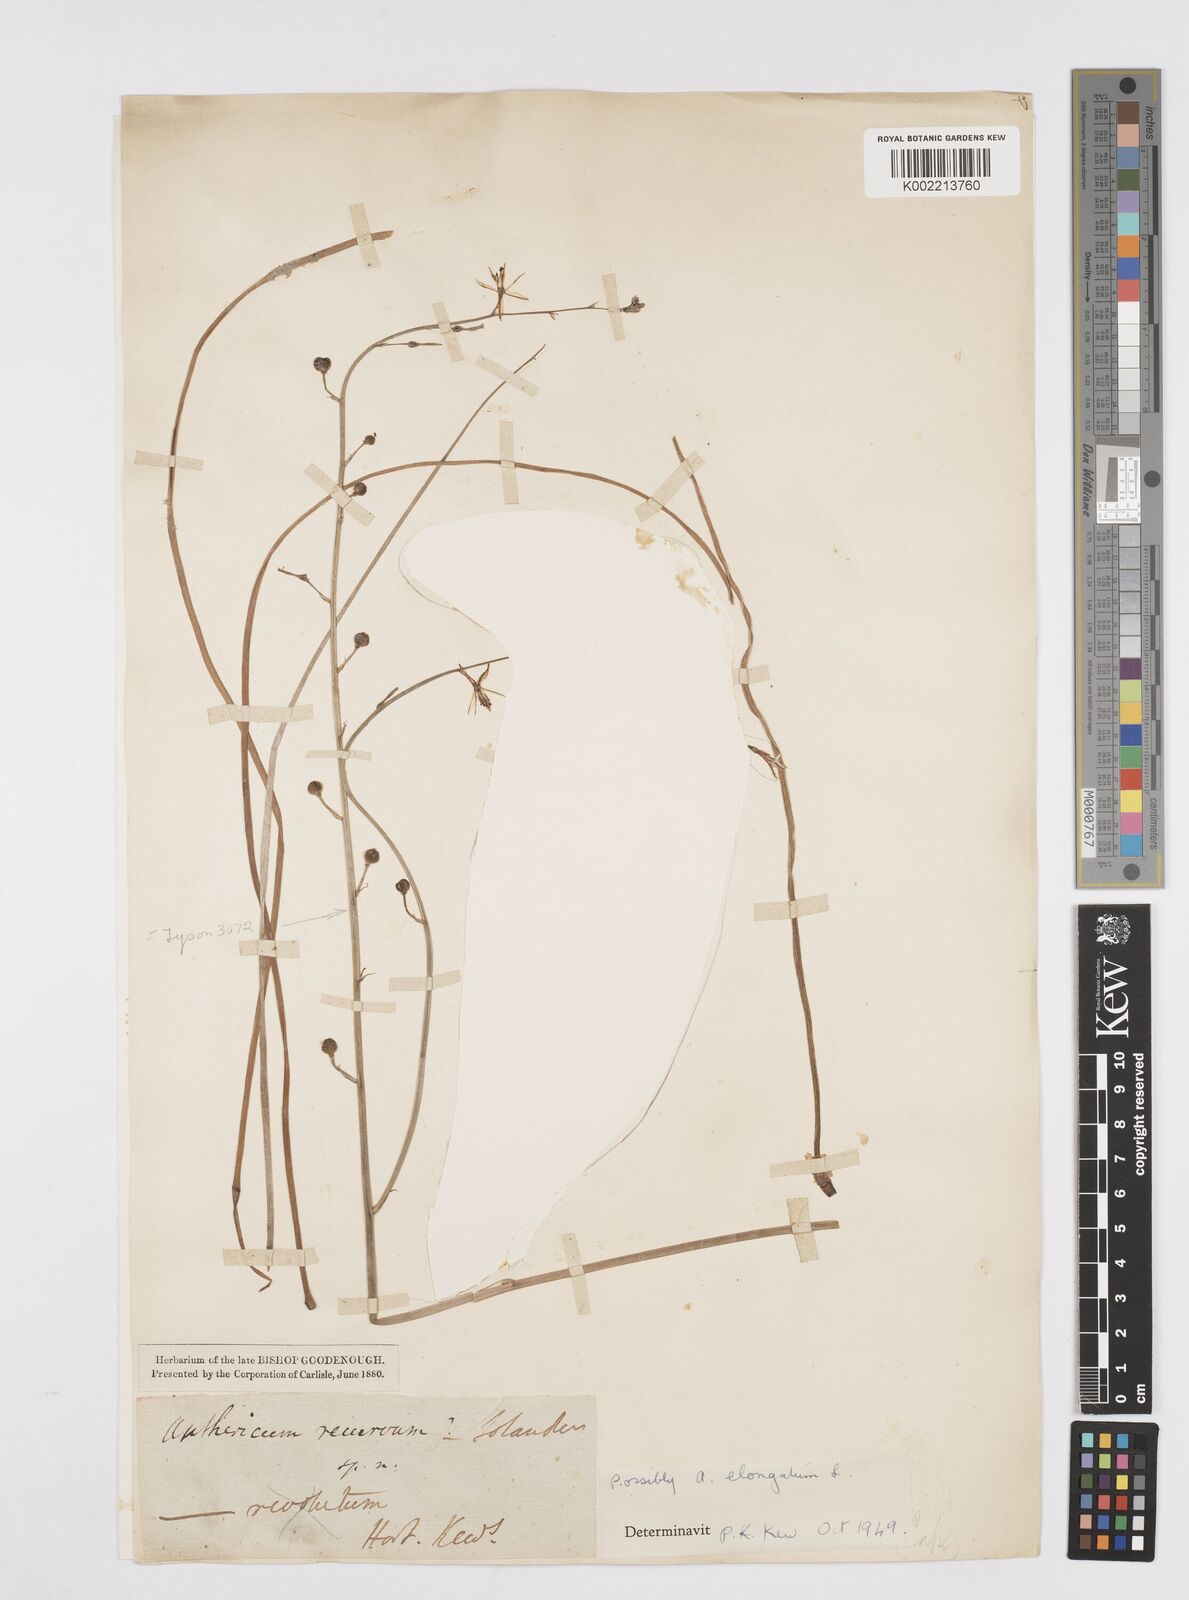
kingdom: Plantae
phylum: Tracheophyta
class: Liliopsida
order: Asparagales
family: Asphodelaceae
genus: Trachyandra
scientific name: Trachyandra revoluta
